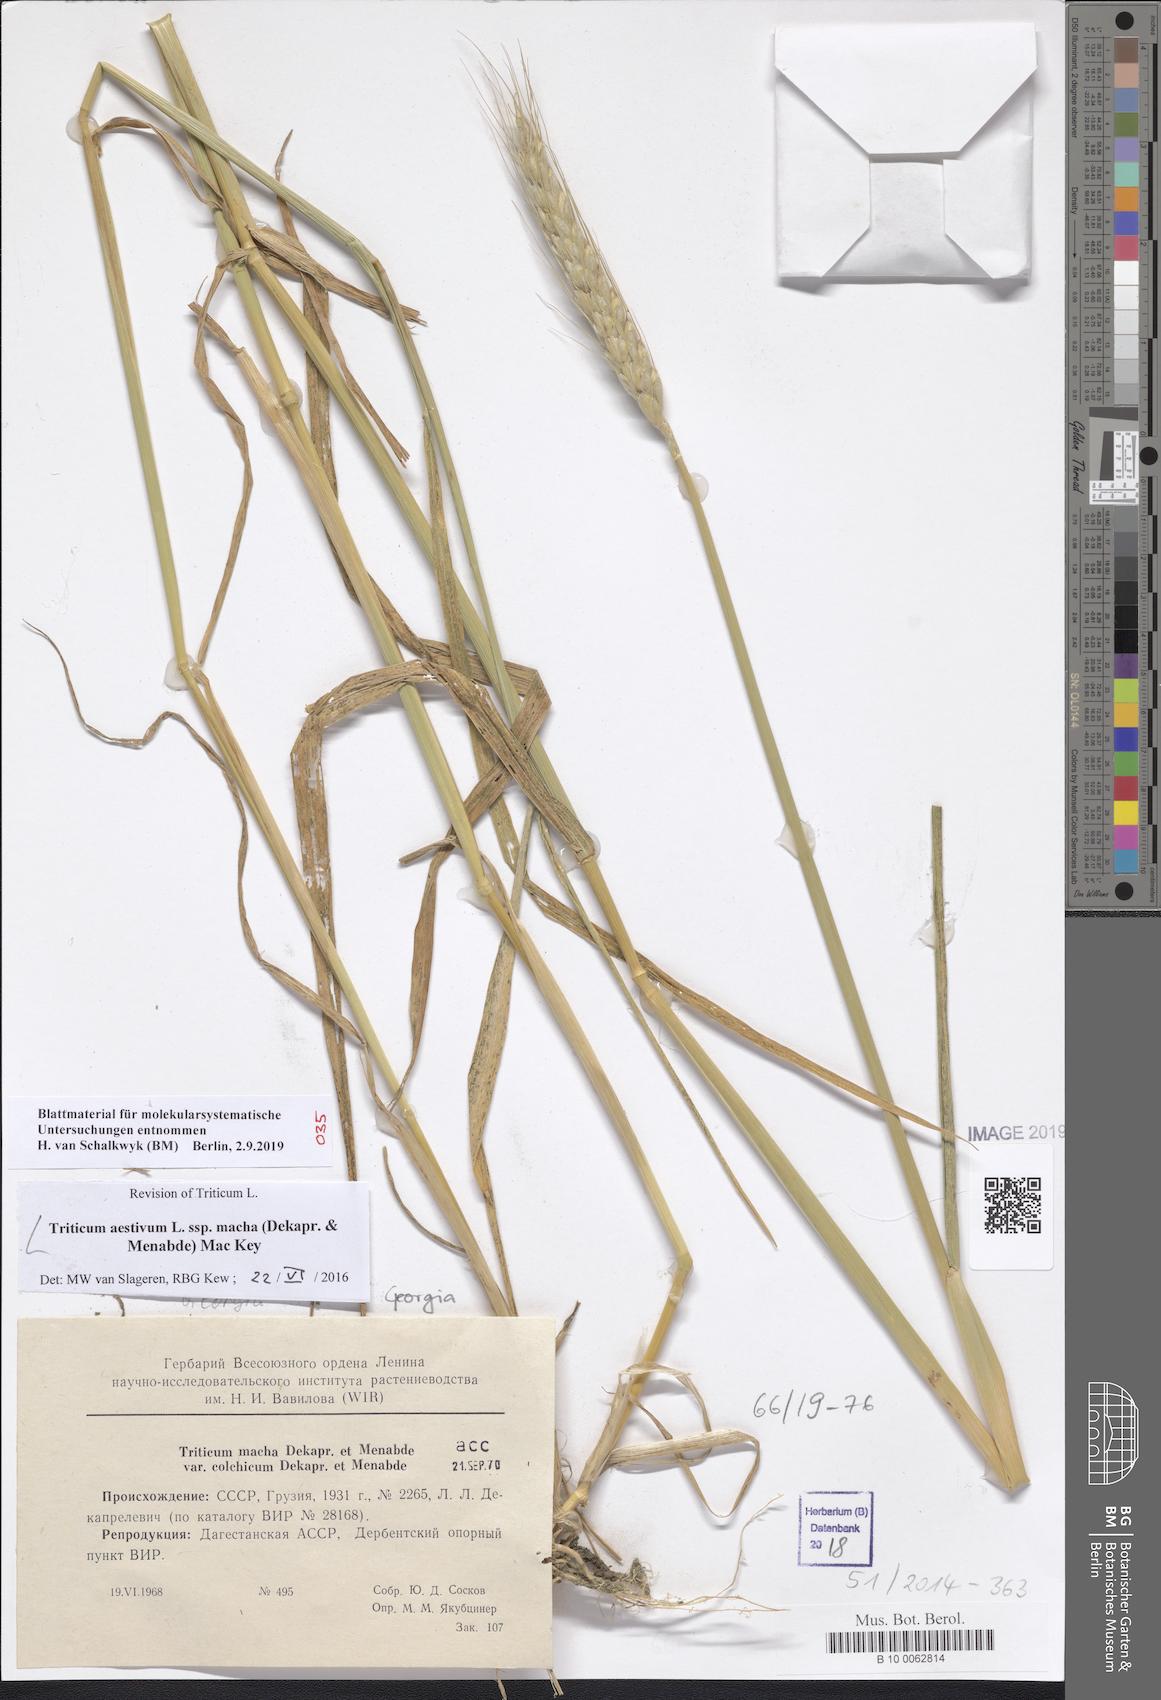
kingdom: Plantae
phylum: Tracheophyta
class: Liliopsida
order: Poales
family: Poaceae
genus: Triticum
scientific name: Triticum aestivum
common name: Common wheat
